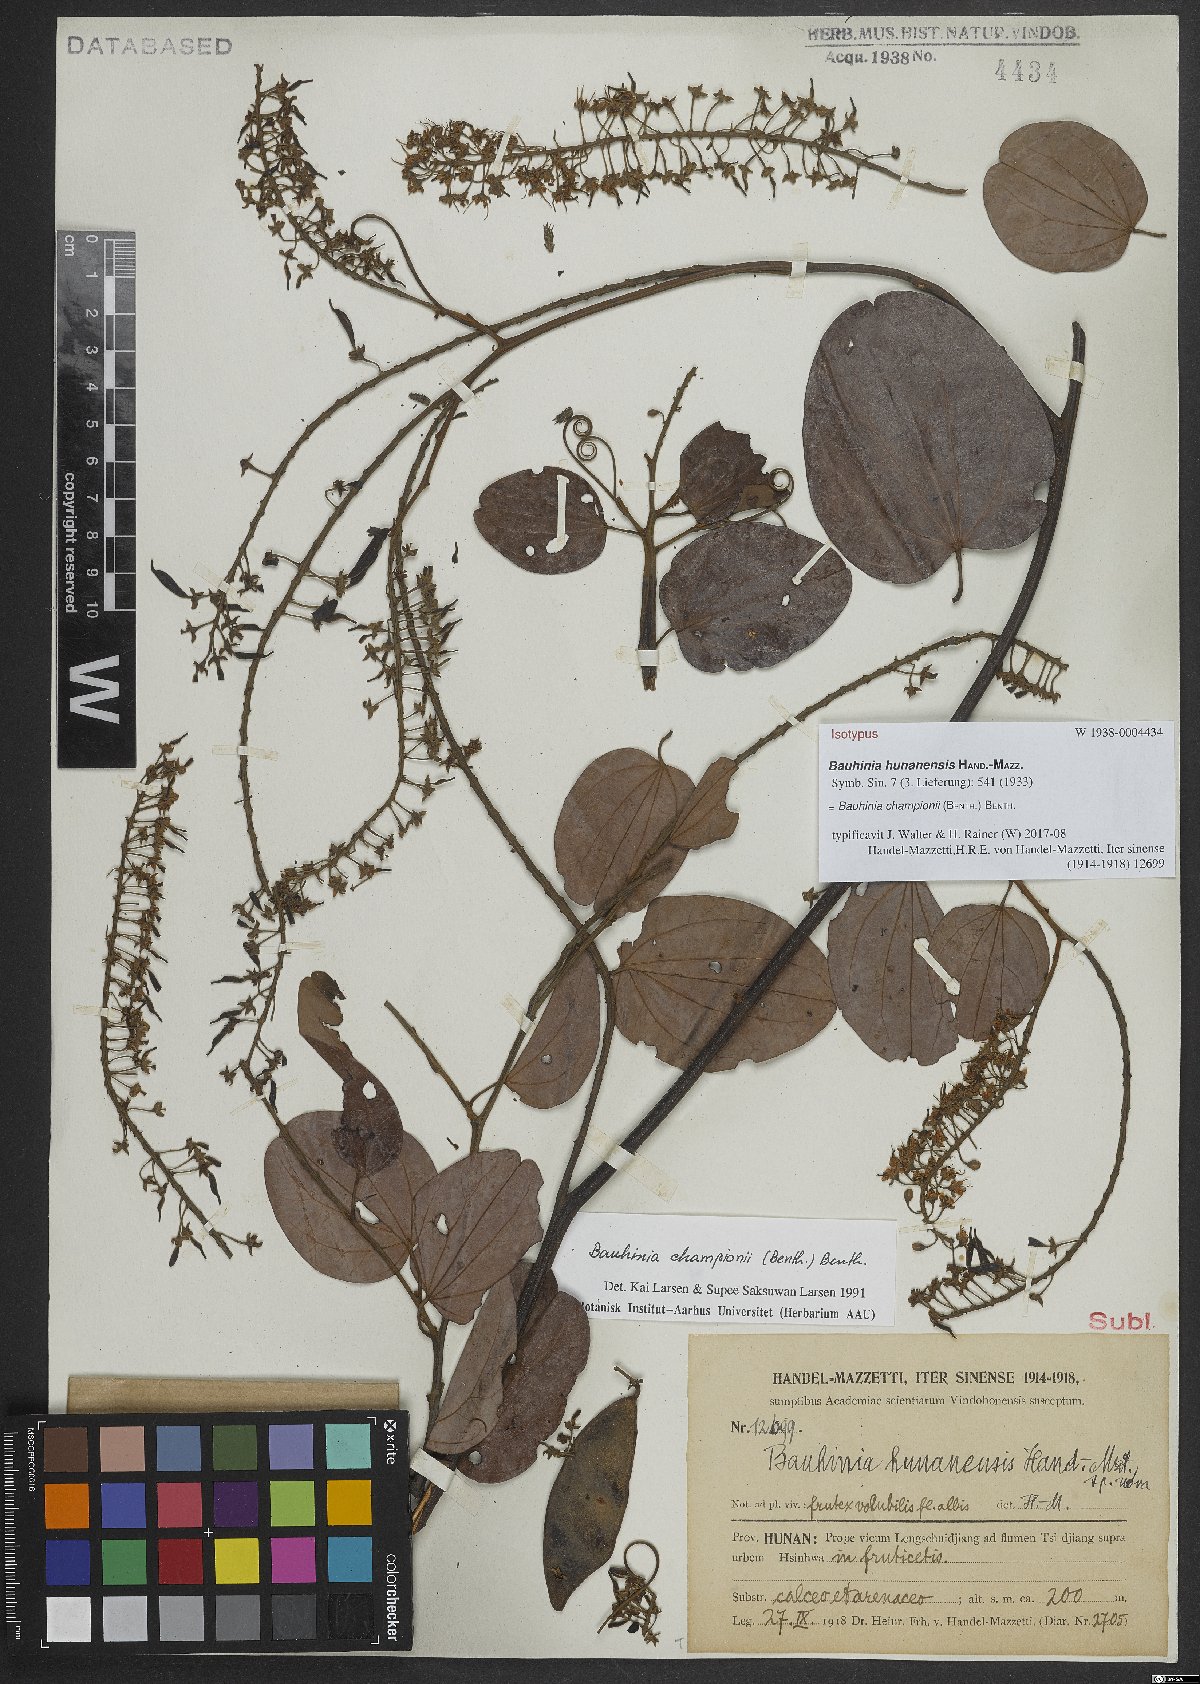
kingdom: Plantae
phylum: Tracheophyta
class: Magnoliopsida
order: Fabales
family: Fabaceae
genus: Phanera
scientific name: Phanera championii
